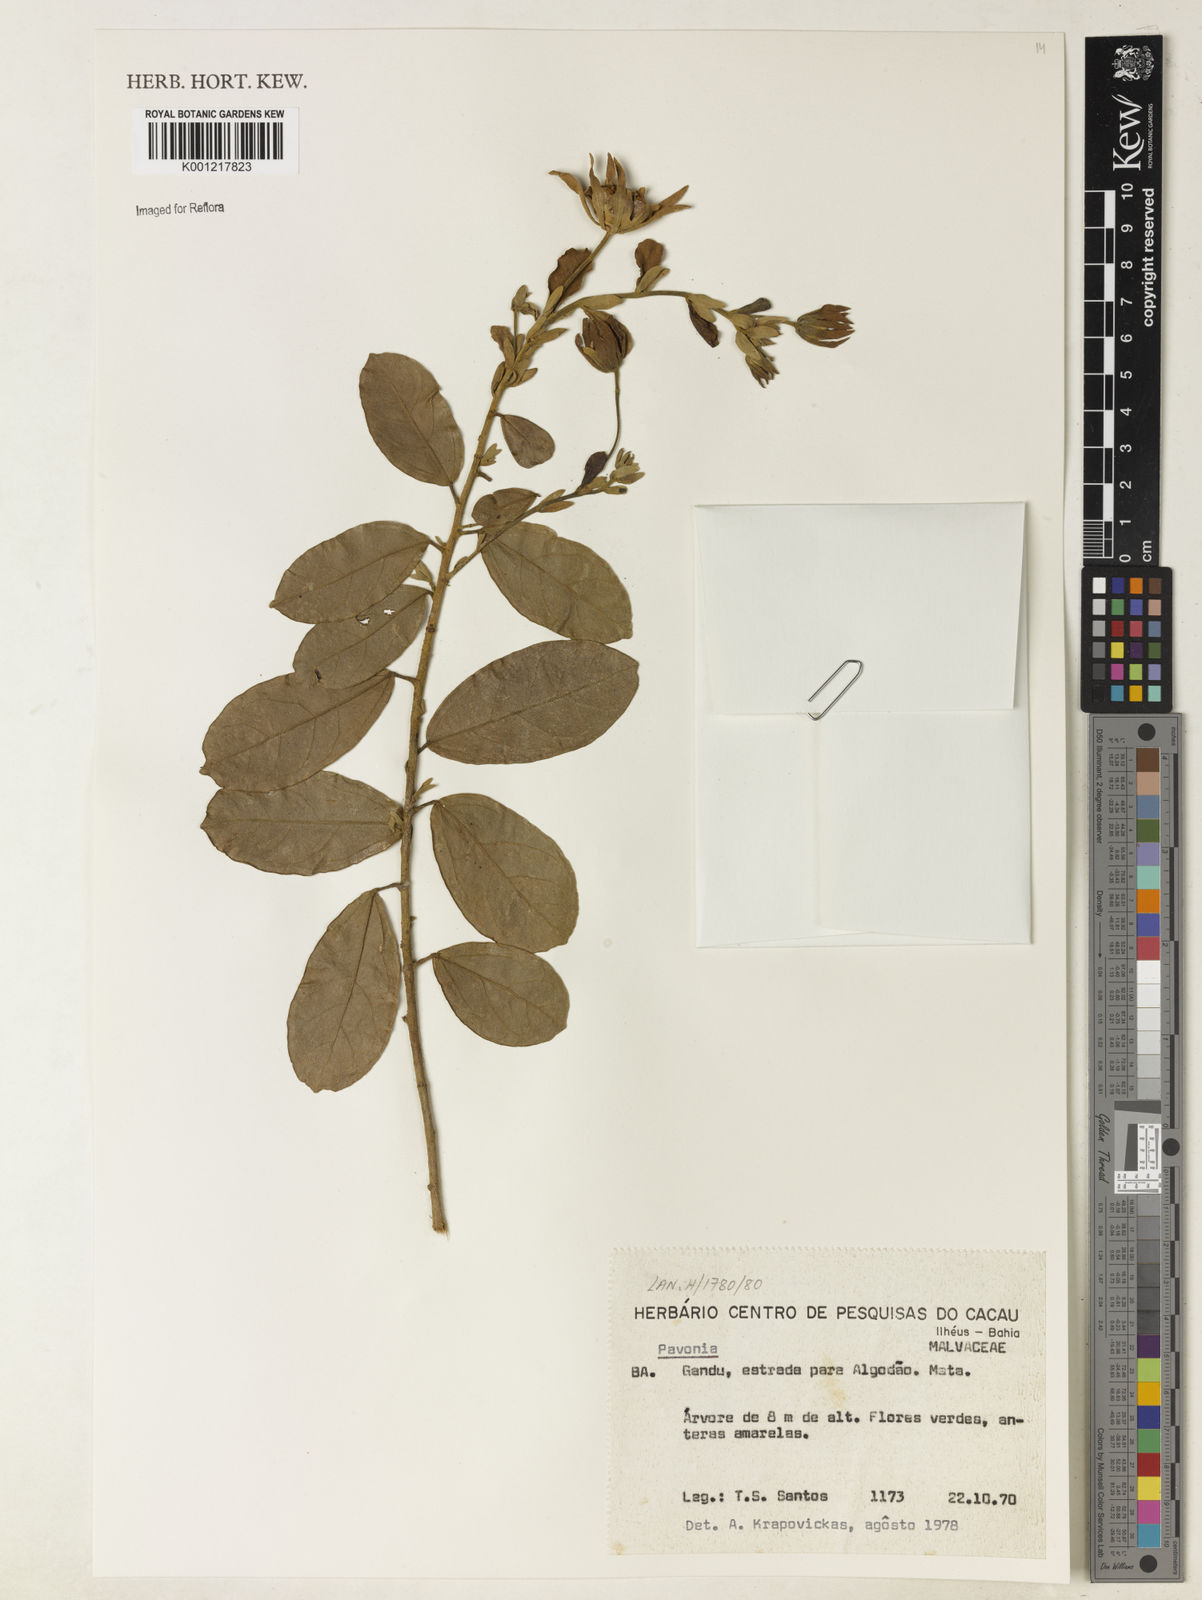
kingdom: Plantae
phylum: Tracheophyta
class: Magnoliopsida
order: Malvales
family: Malvaceae
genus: Pavonia
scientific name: Pavonia
